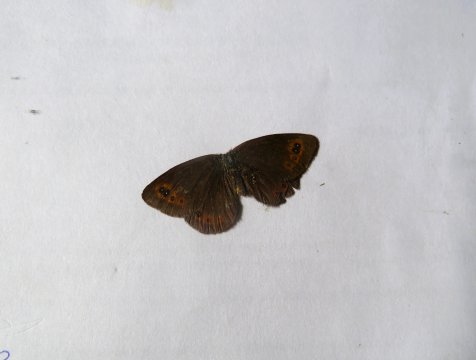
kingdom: Animalia
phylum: Arthropoda
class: Insecta
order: Lepidoptera
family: Nymphalidae
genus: Erebia
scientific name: Erebia epipsodea
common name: Common Alpine
